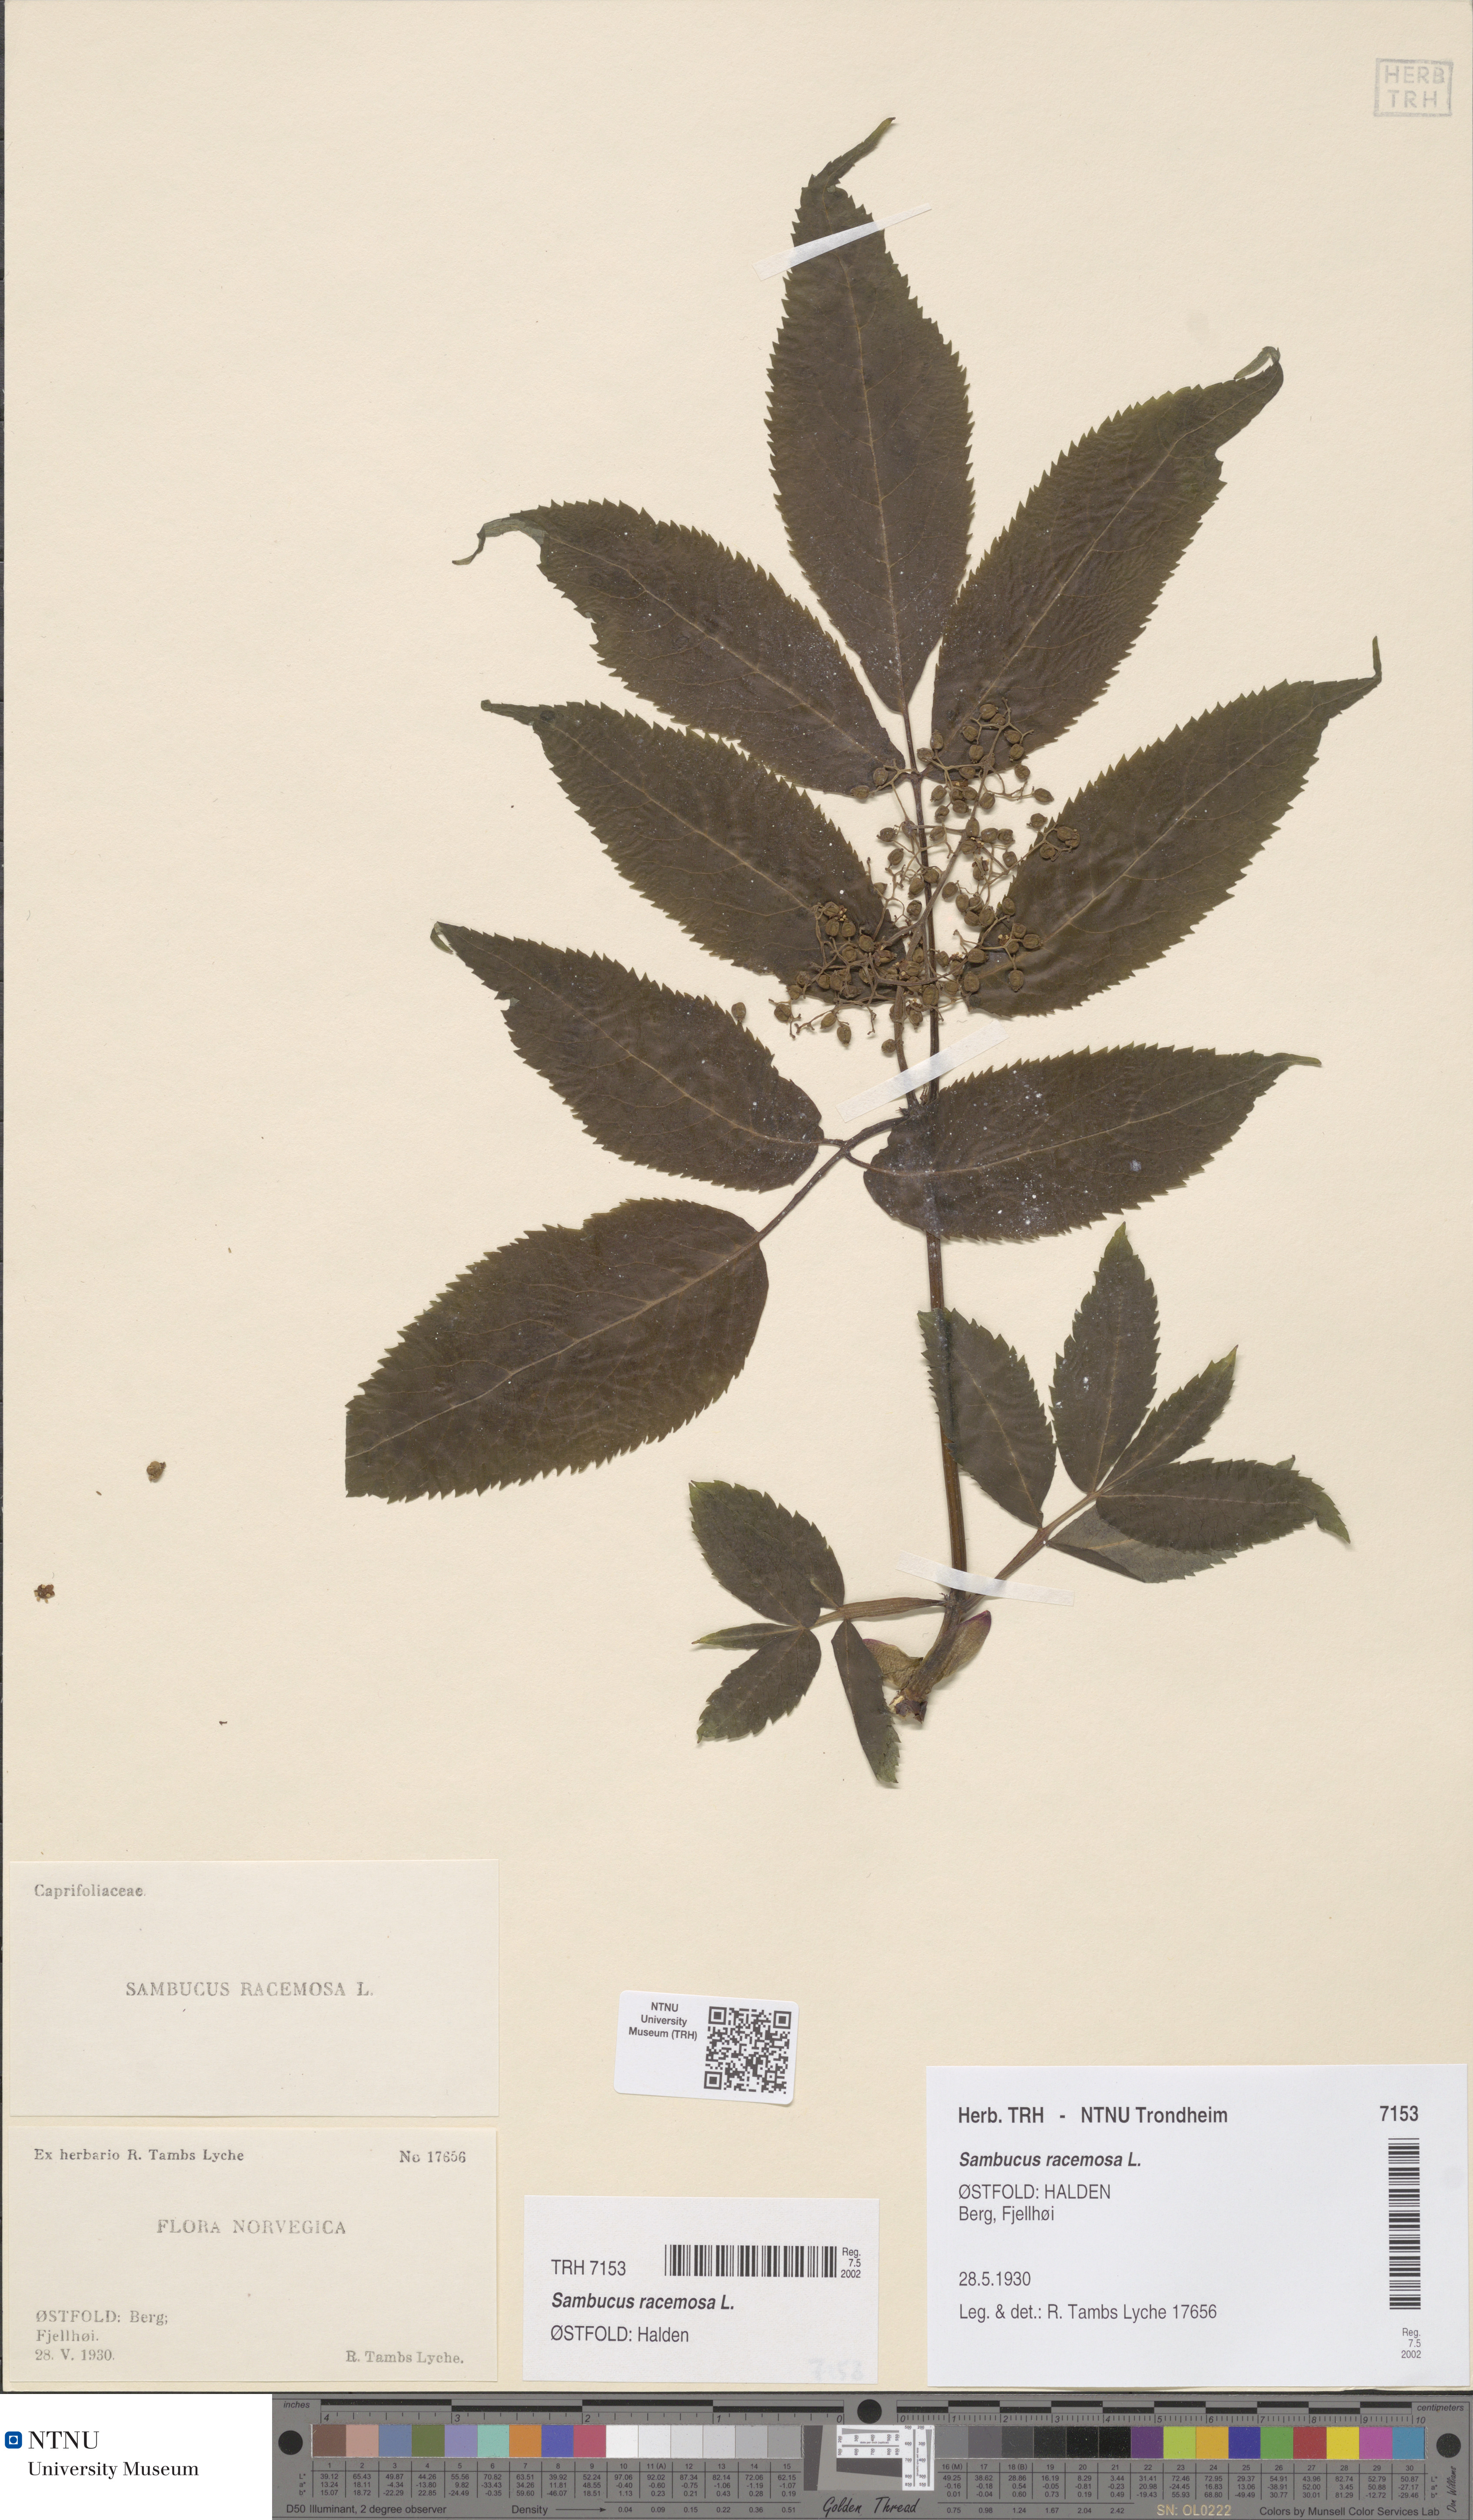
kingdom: Plantae
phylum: Tracheophyta
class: Magnoliopsida
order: Dipsacales
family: Viburnaceae
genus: Sambucus
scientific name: Sambucus racemosa
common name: Red-berried elder
